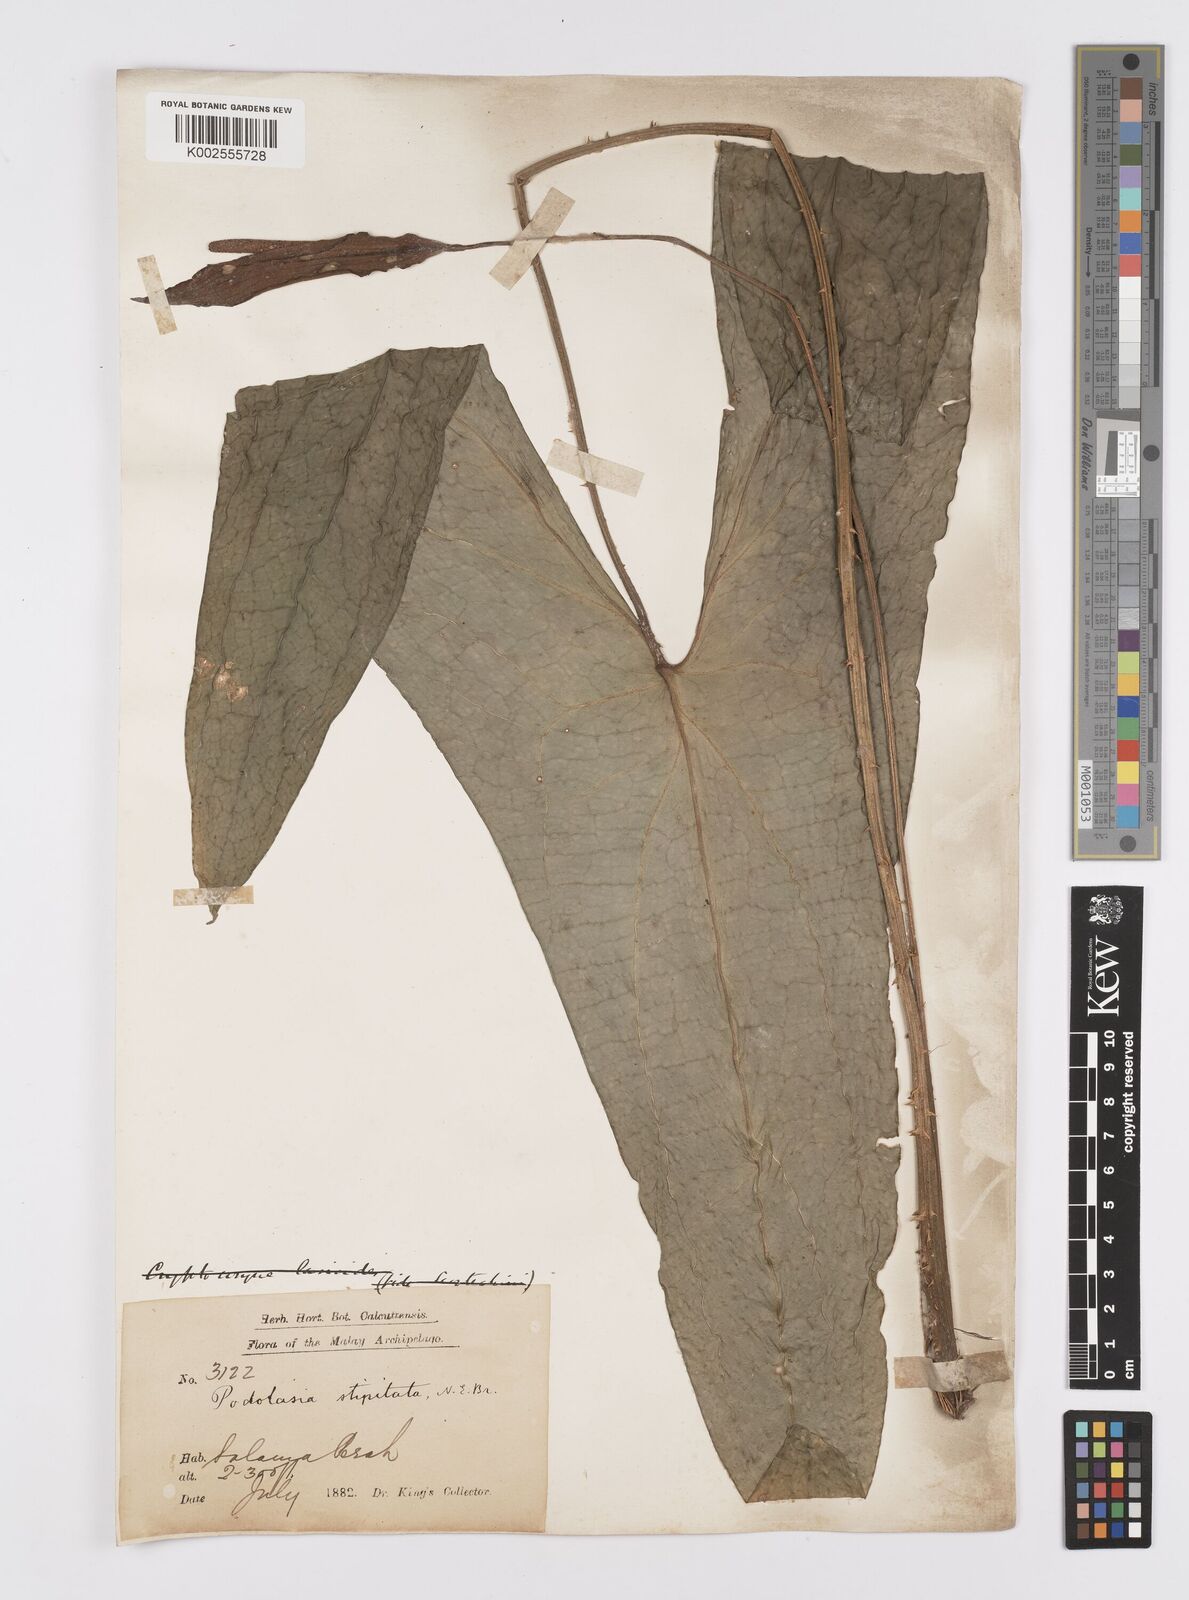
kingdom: Plantae
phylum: Tracheophyta
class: Liliopsida
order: Alismatales
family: Araceae
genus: Podolasia
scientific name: Podolasia stipitata
